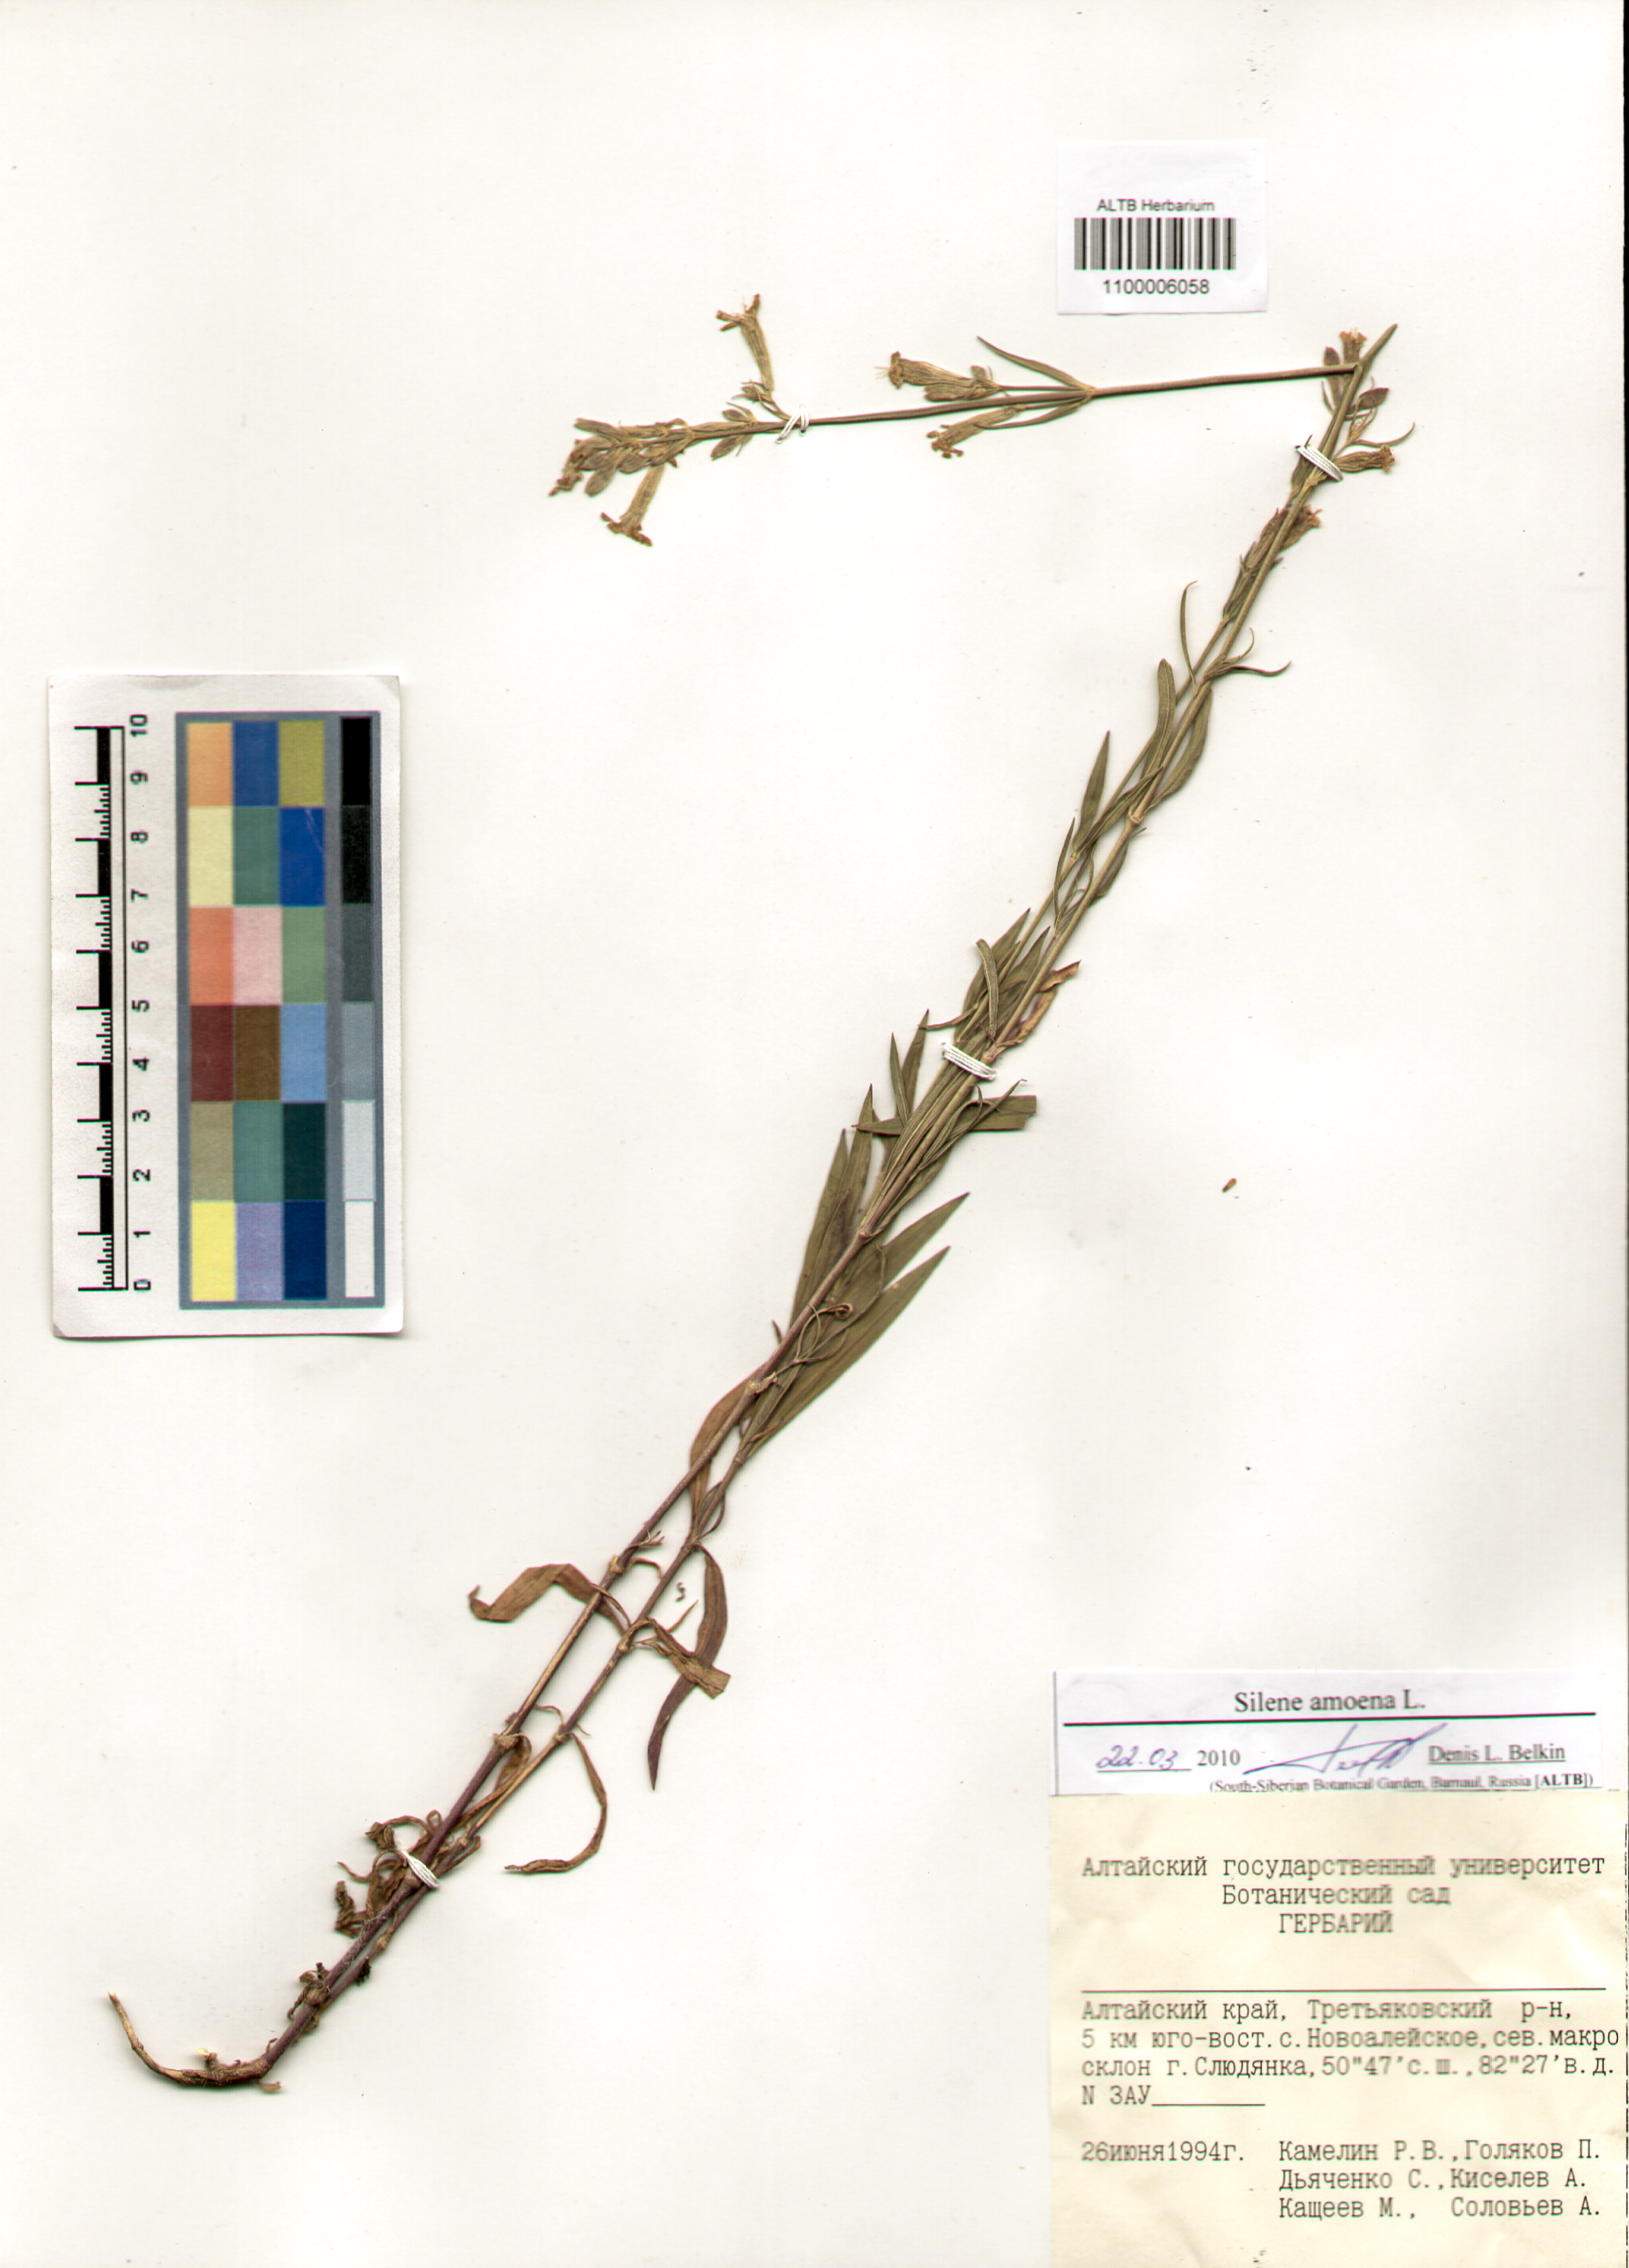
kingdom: Plantae
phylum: Tracheophyta
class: Magnoliopsida
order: Caryophyllales
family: Caryophyllaceae
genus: Silene
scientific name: Silene amoena
